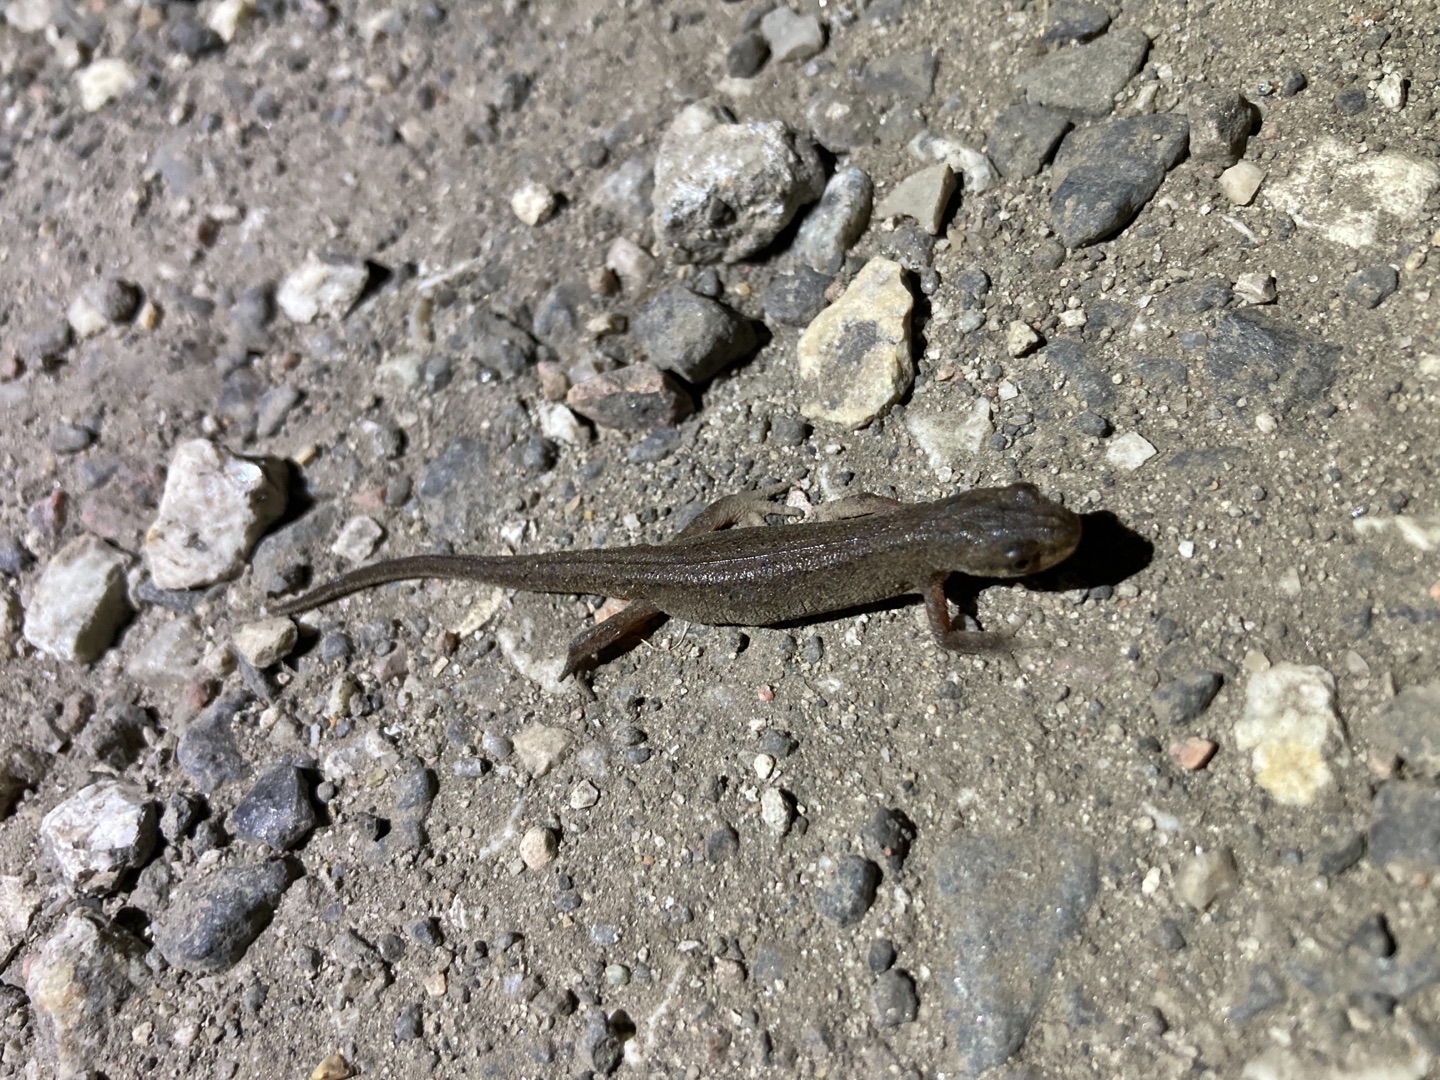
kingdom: Animalia
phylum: Chordata
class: Amphibia
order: Caudata
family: Salamandridae
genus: Lissotriton
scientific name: Lissotriton vulgaris
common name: Lille vandsalamander
